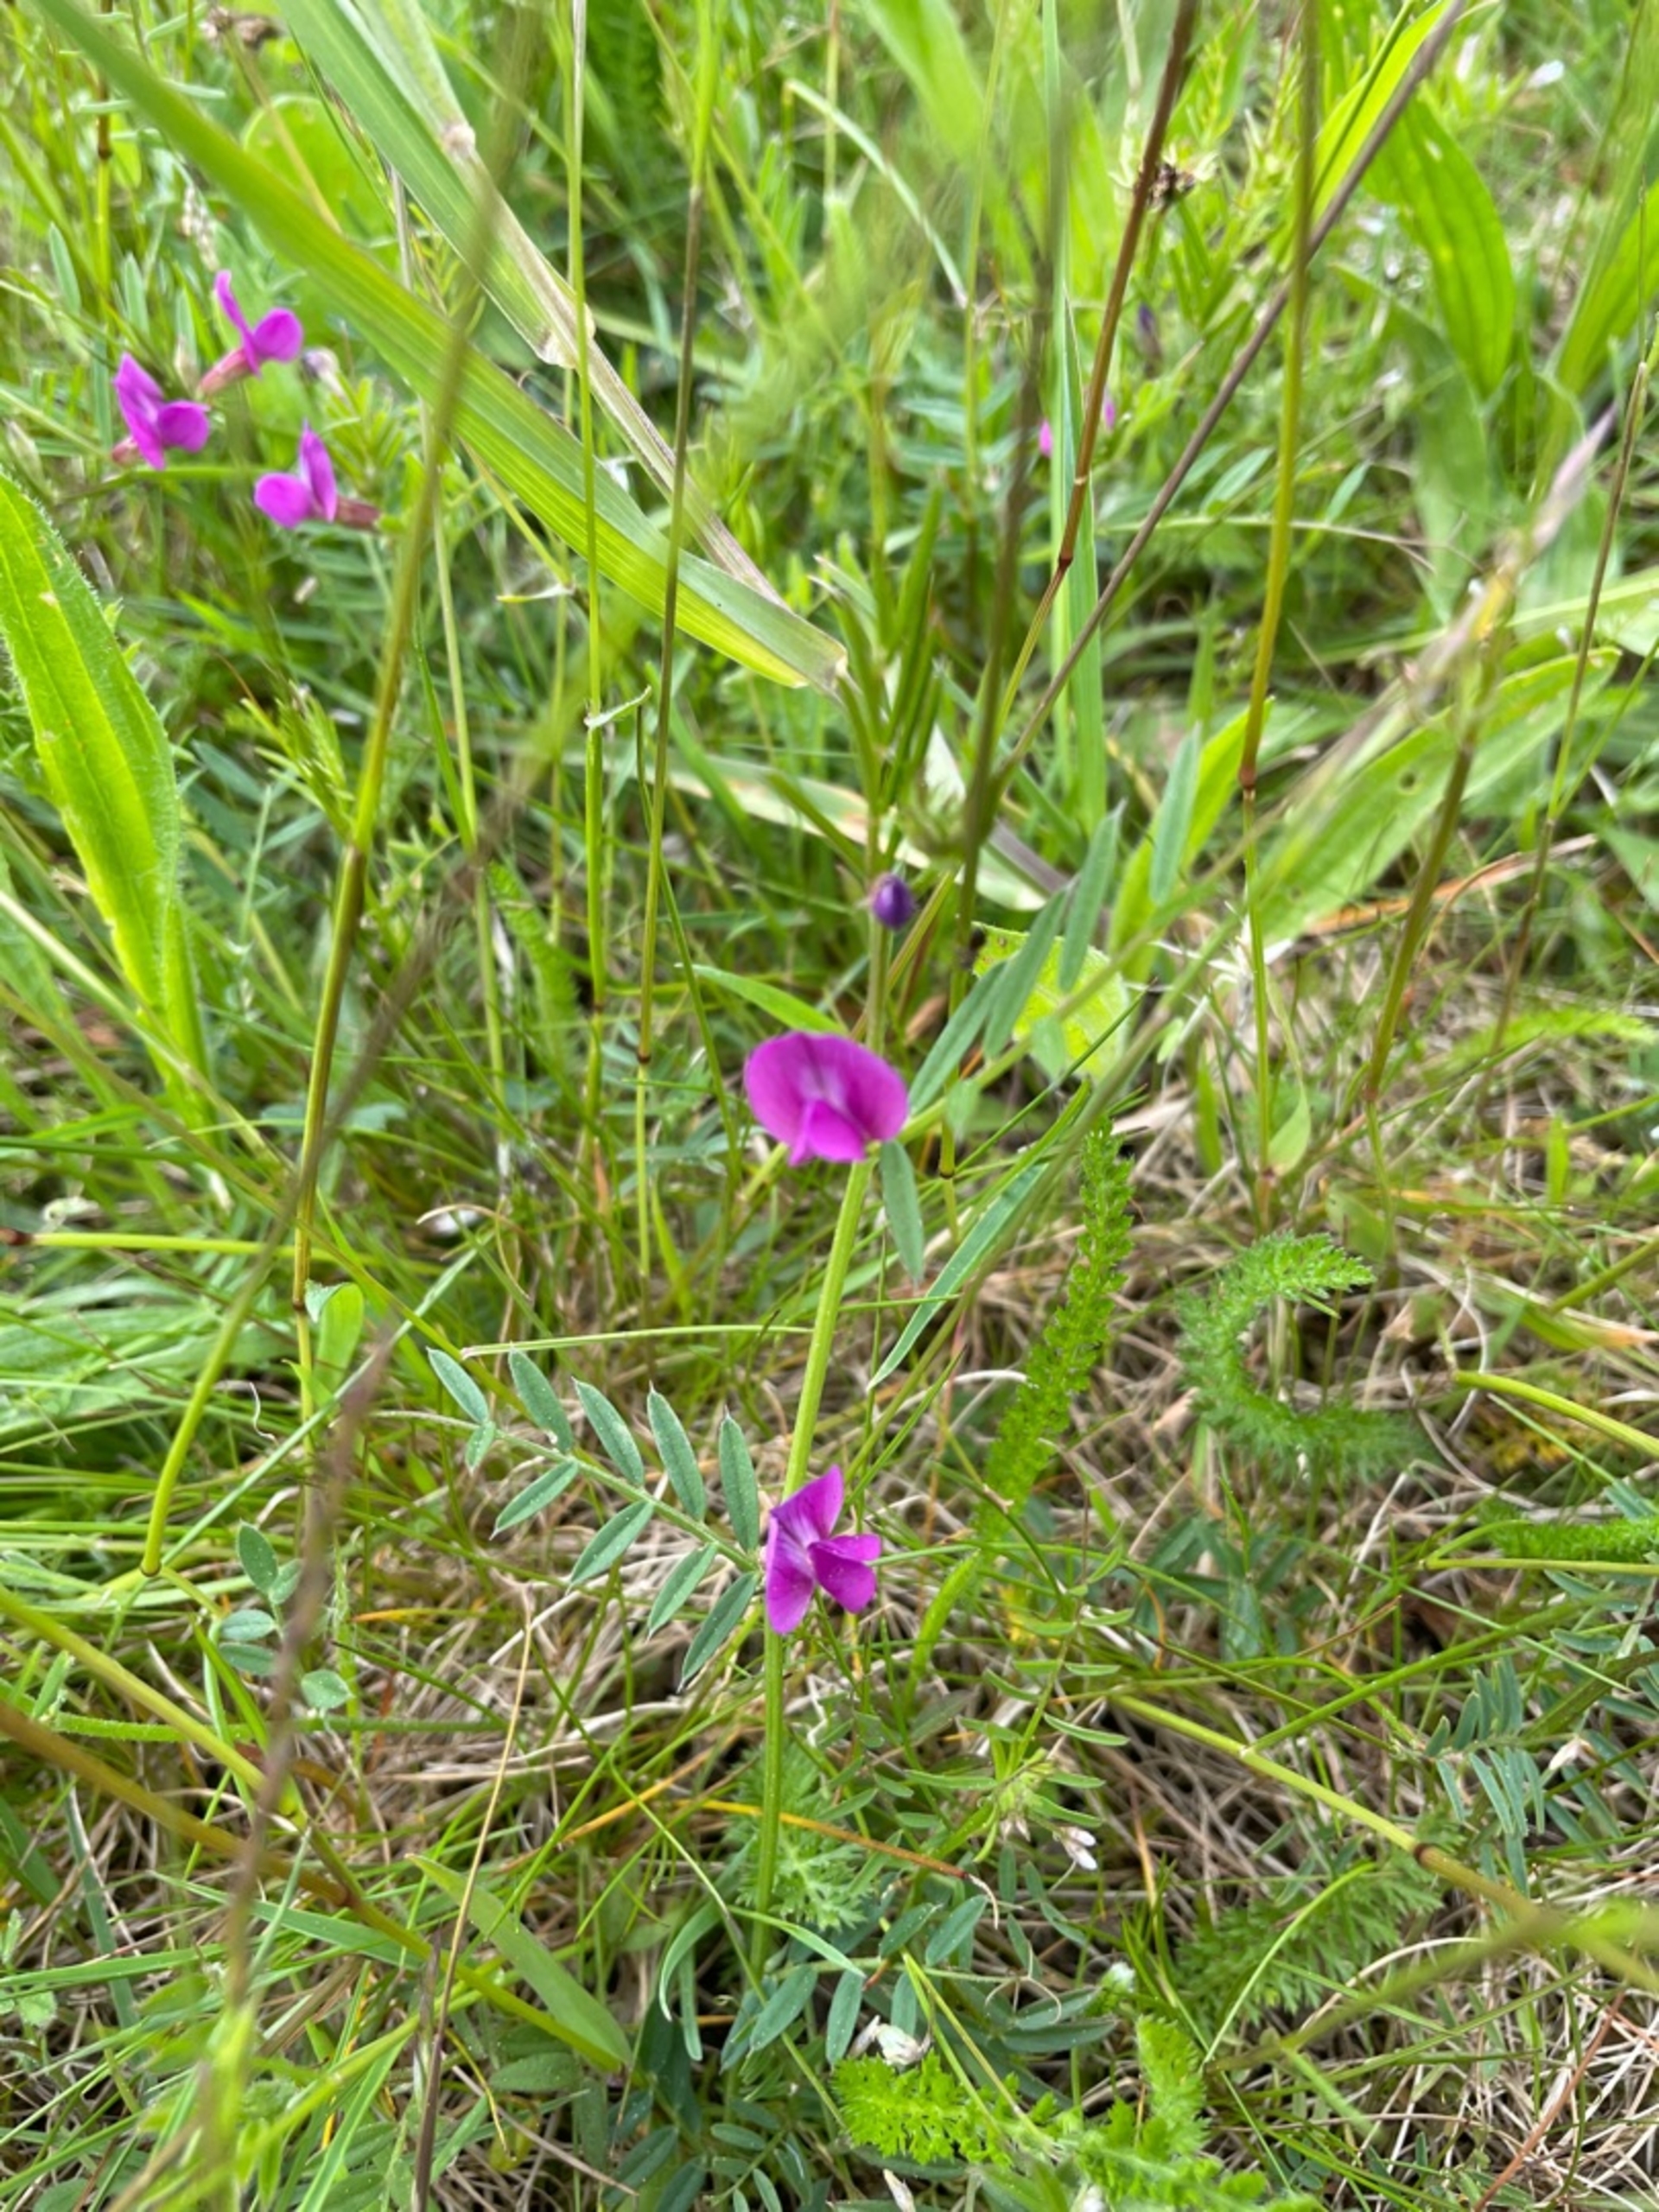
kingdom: Plantae
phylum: Tracheophyta
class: Magnoliopsida
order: Fabales
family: Fabaceae
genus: Vicia
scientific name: Vicia sativa
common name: Smalbladet vikke
